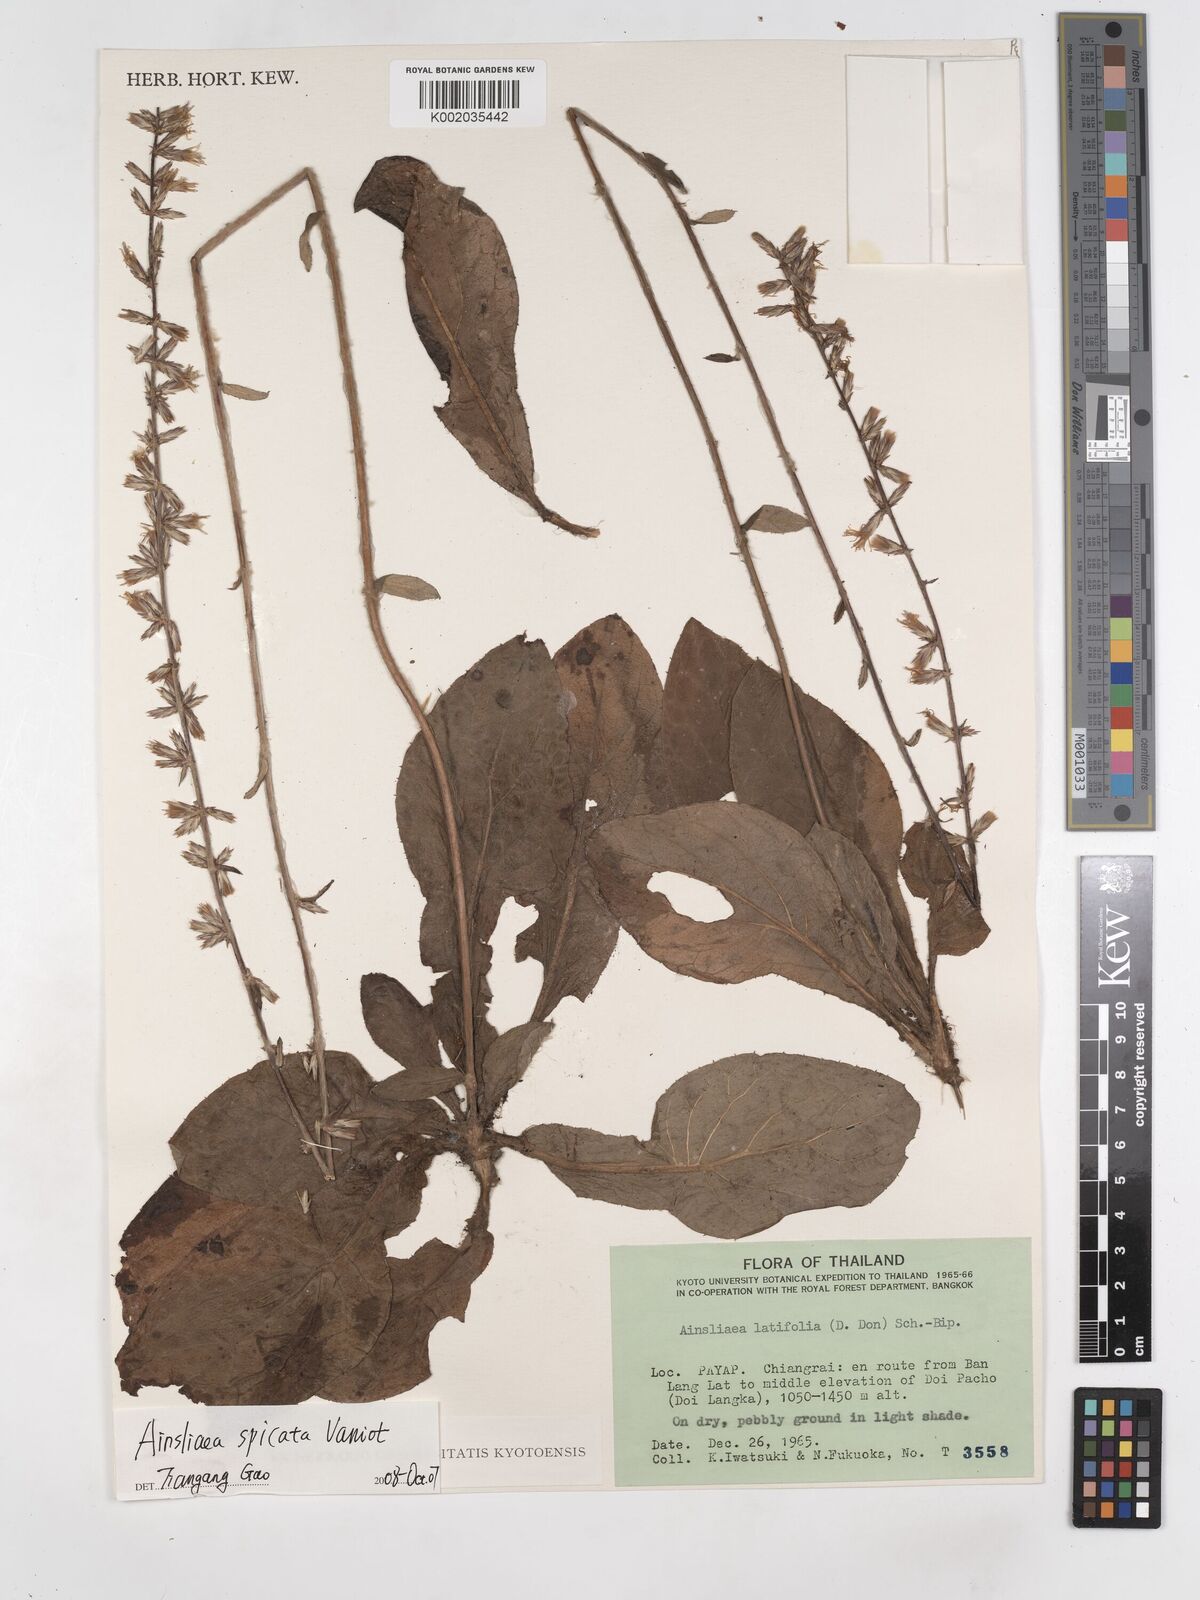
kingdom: Plantae
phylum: Tracheophyta
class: Magnoliopsida
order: Asterales
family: Asteraceae
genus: Ainsliaea
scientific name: Ainsliaea spicata
